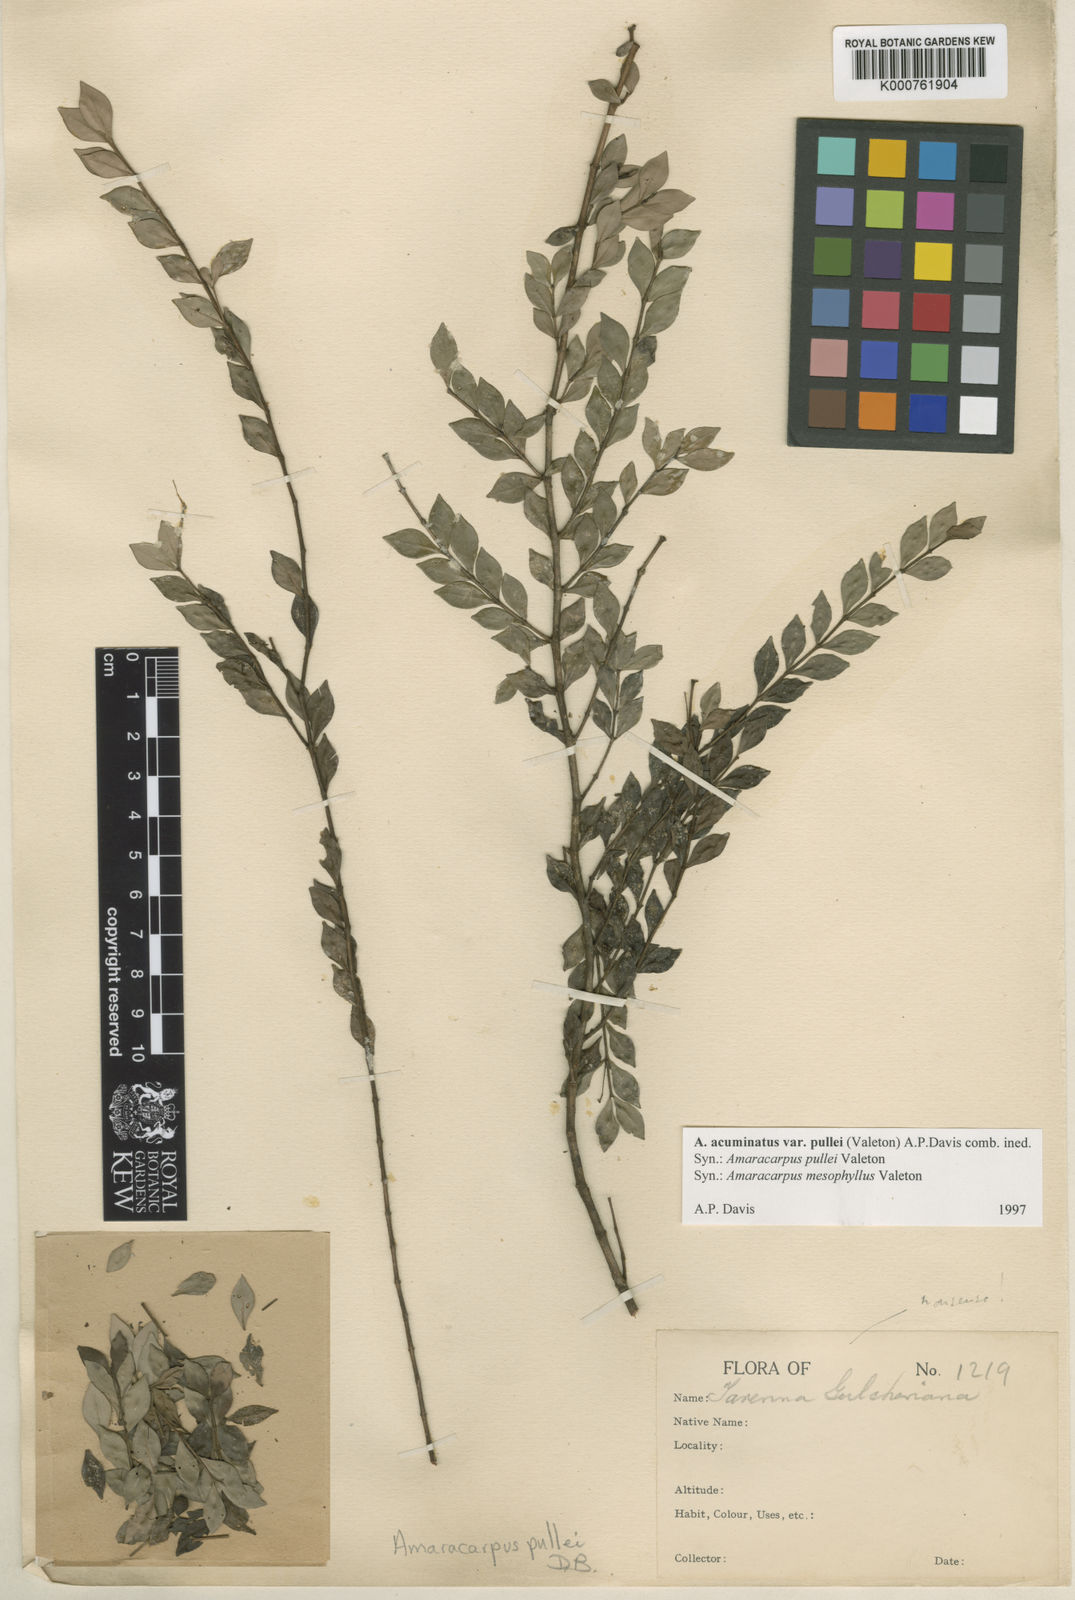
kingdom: Plantae
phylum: Tracheophyta
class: Magnoliopsida
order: Gentianales
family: Rubiaceae
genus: Amaracarpus
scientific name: Amaracarpus acuminatus
